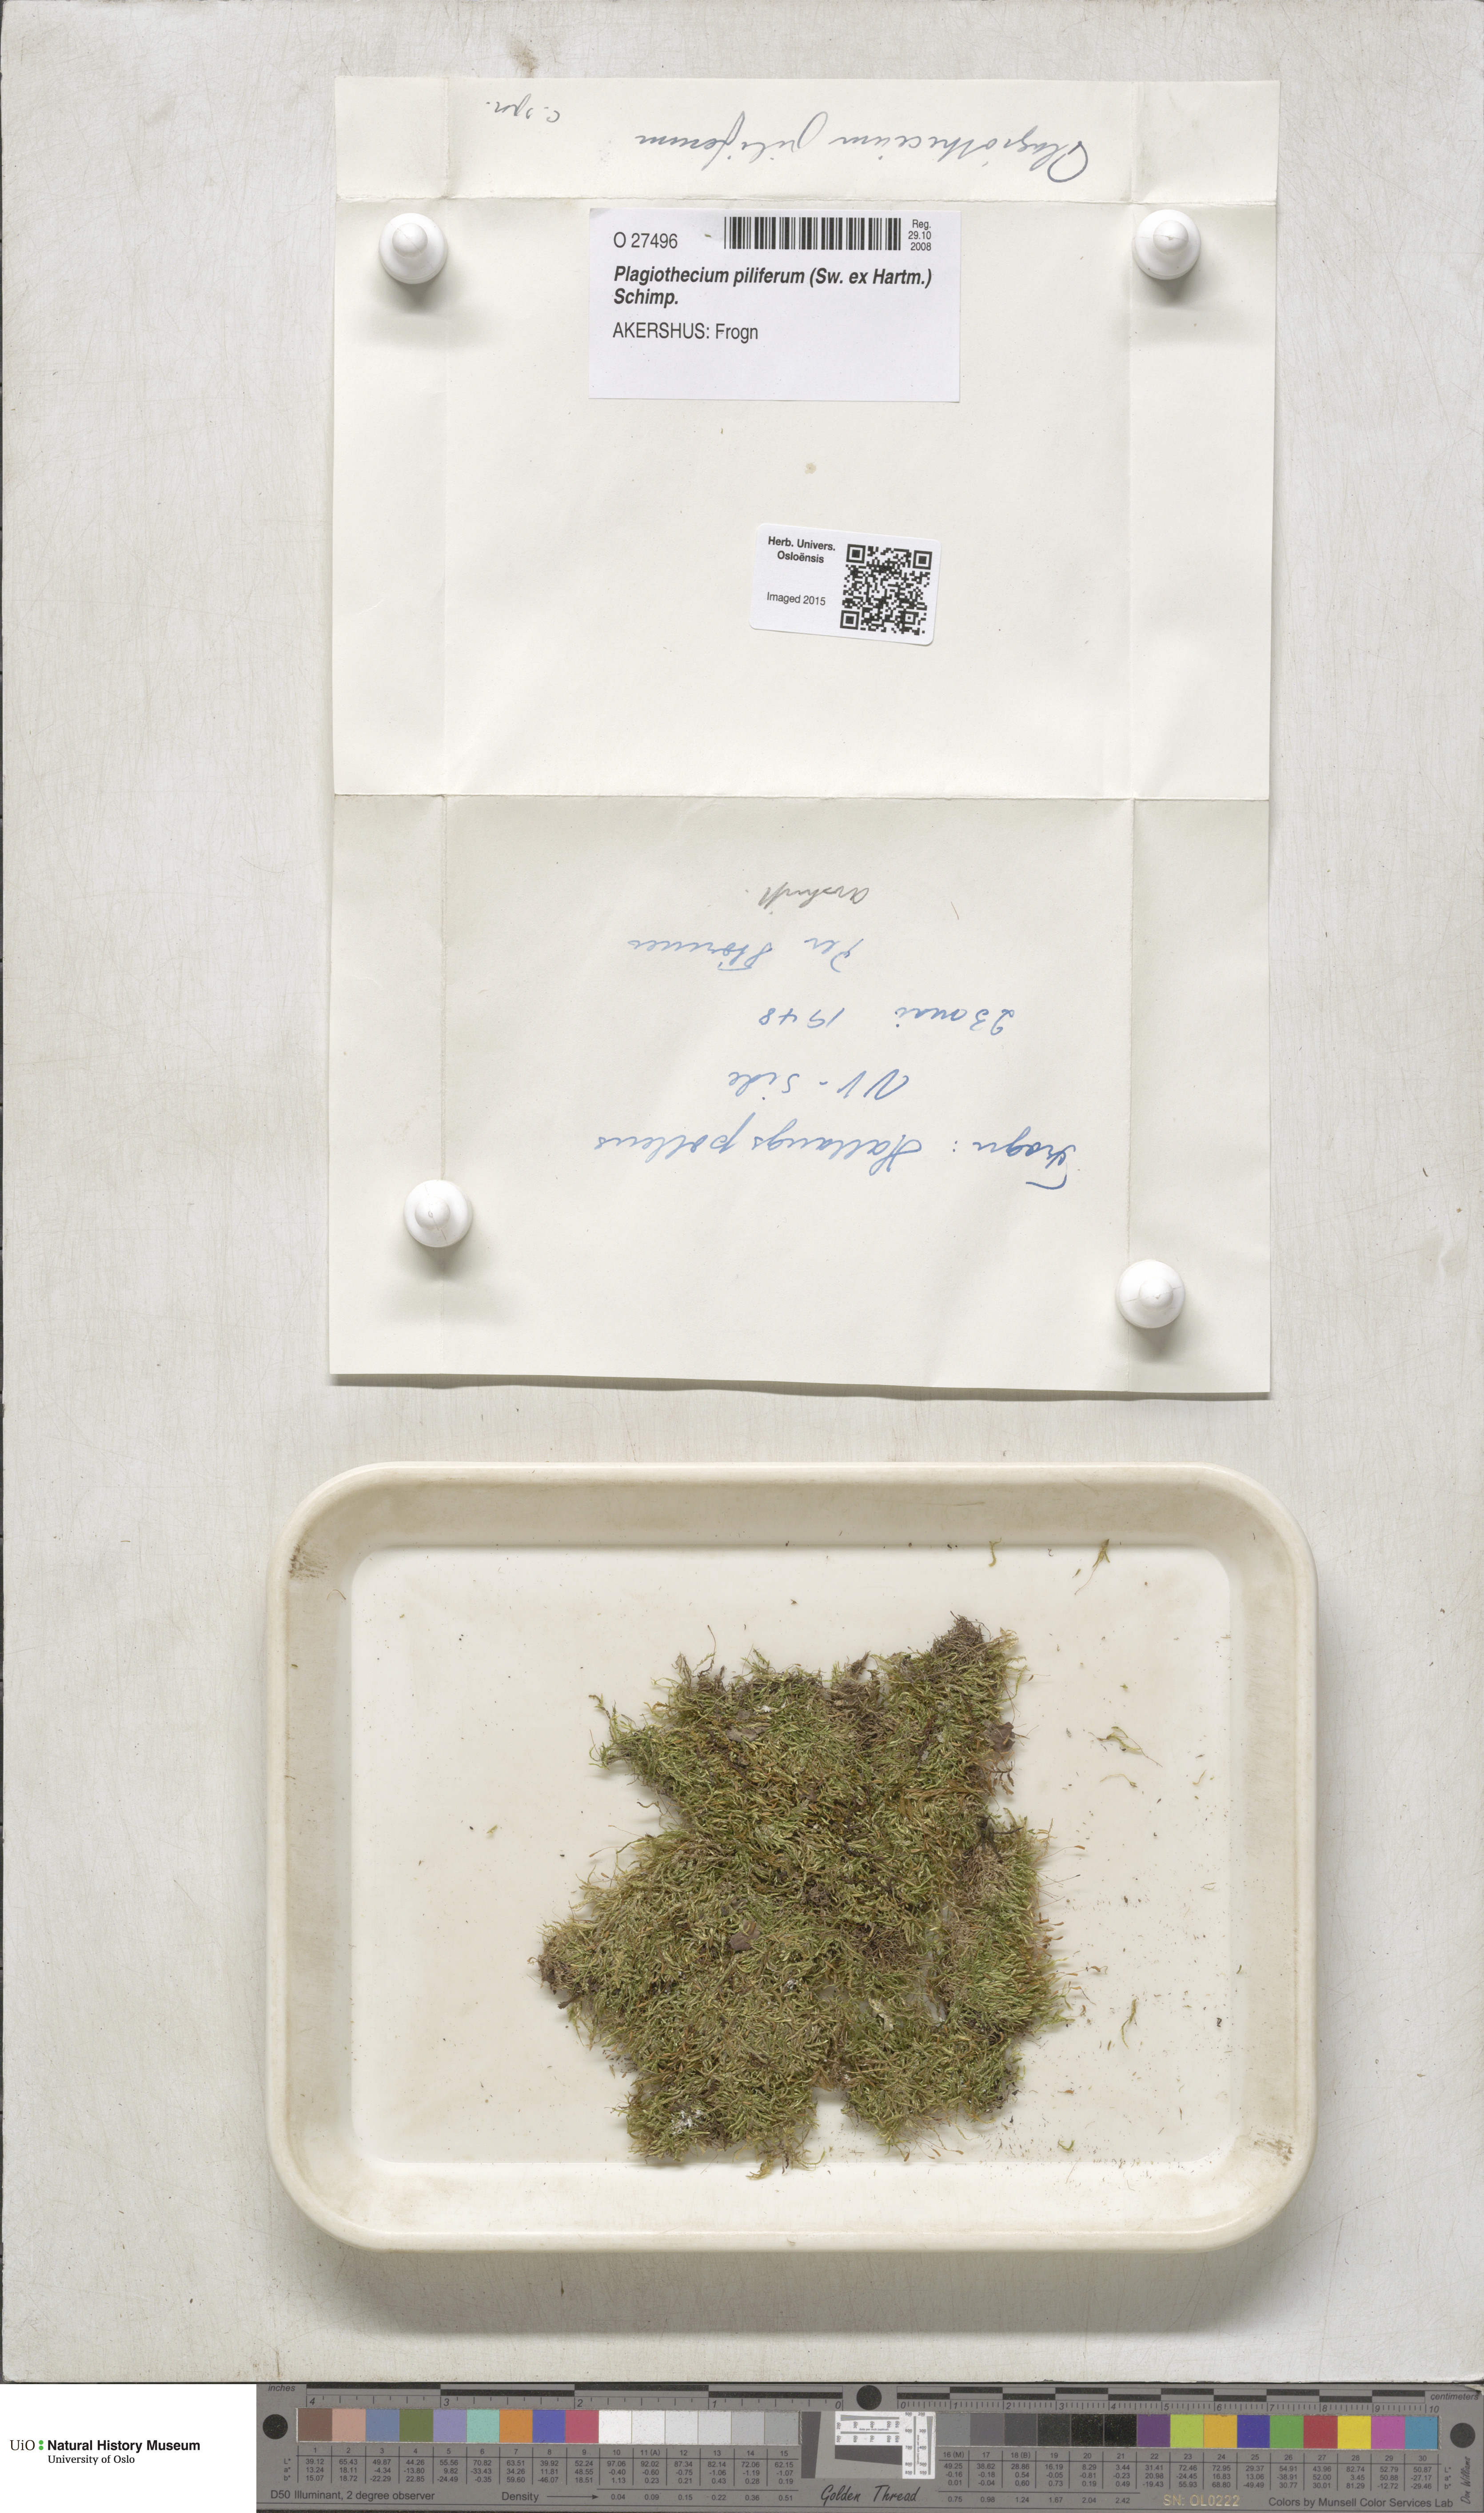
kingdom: Plantae
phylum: Bryophyta
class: Bryopsida
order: Hypnales
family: Plagiotheciaceae
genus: Rectithecium
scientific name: Rectithecium piliferum
